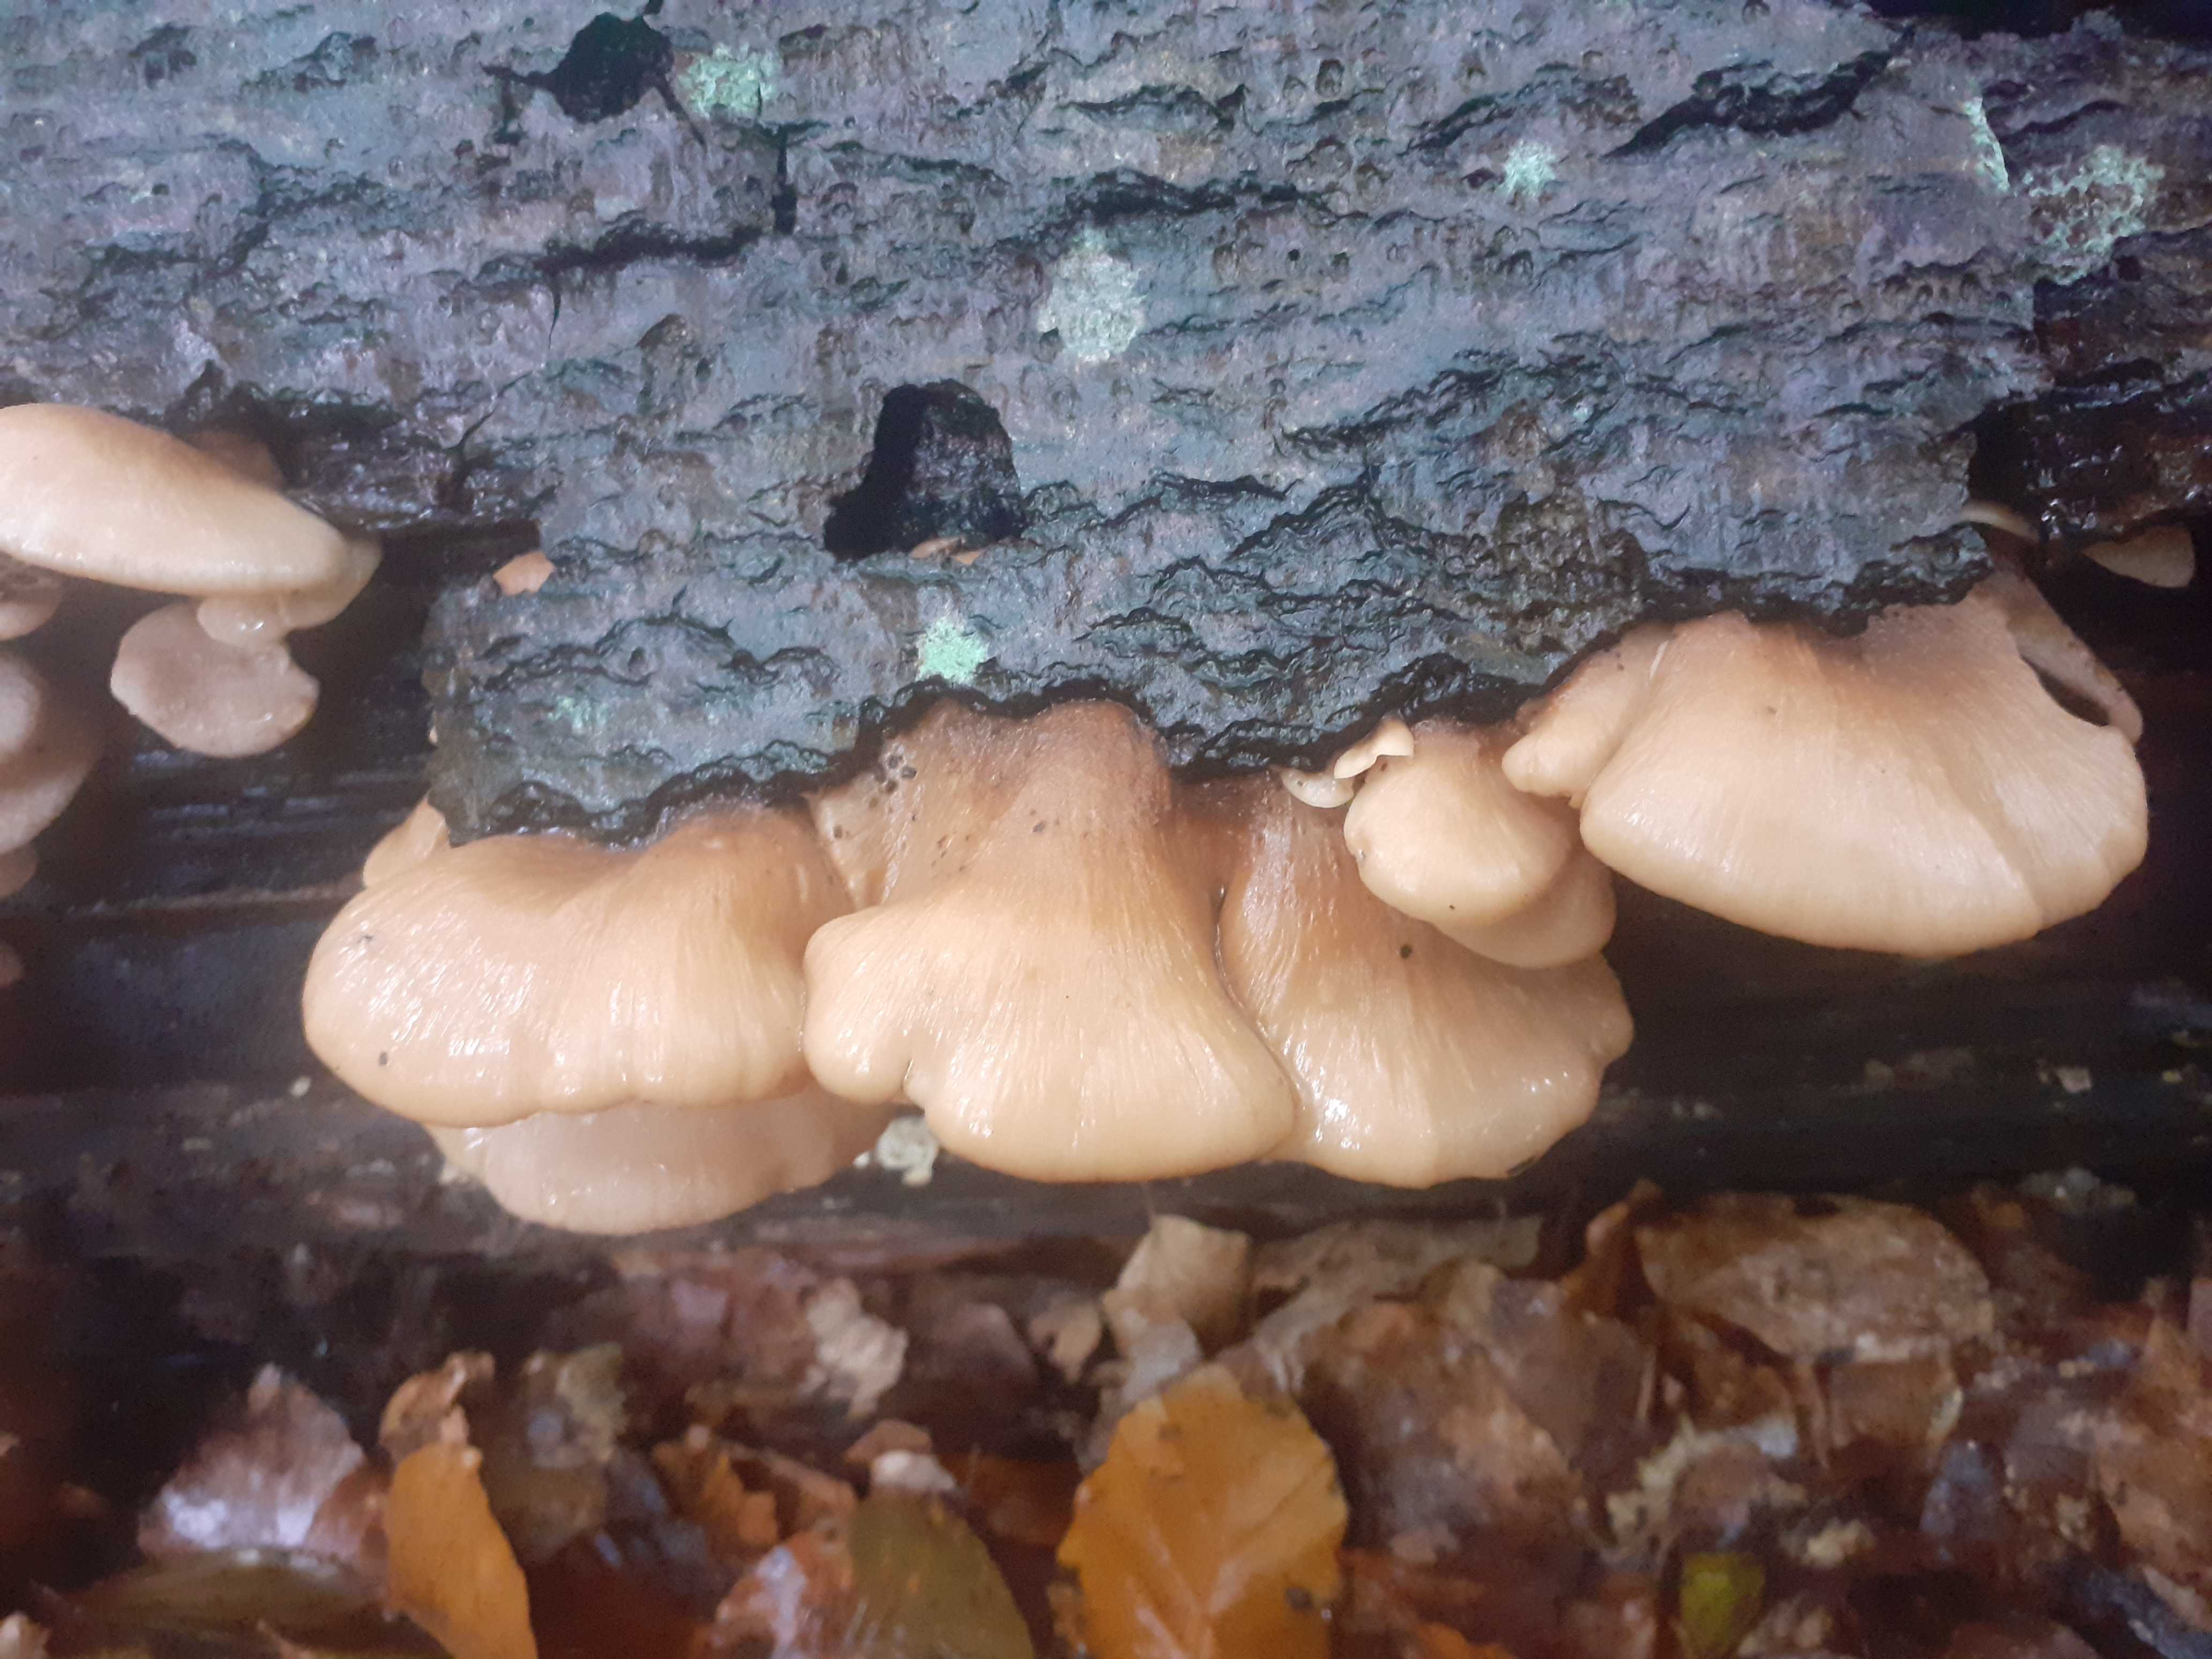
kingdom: Fungi
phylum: Basidiomycota
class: Agaricomycetes
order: Russulales
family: Auriscalpiaceae
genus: Lentinellus
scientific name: Lentinellus ursinus
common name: børstehåret savbladhat
